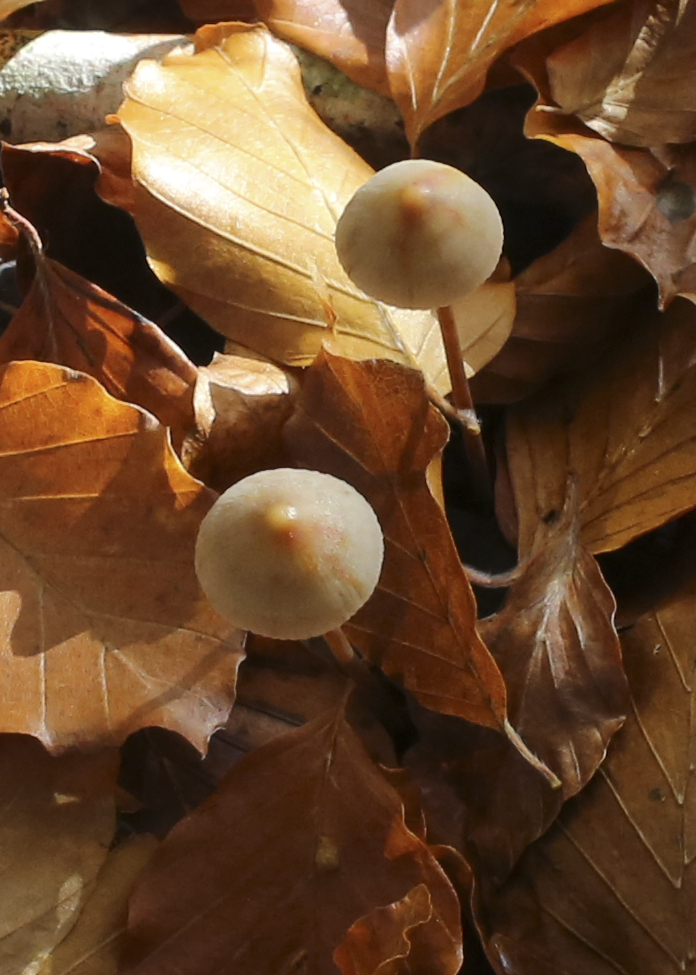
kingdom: Fungi
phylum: Basidiomycota
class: Agaricomycetes
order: Agaricales
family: Mycenaceae
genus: Mycena
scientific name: Mycena crocata
